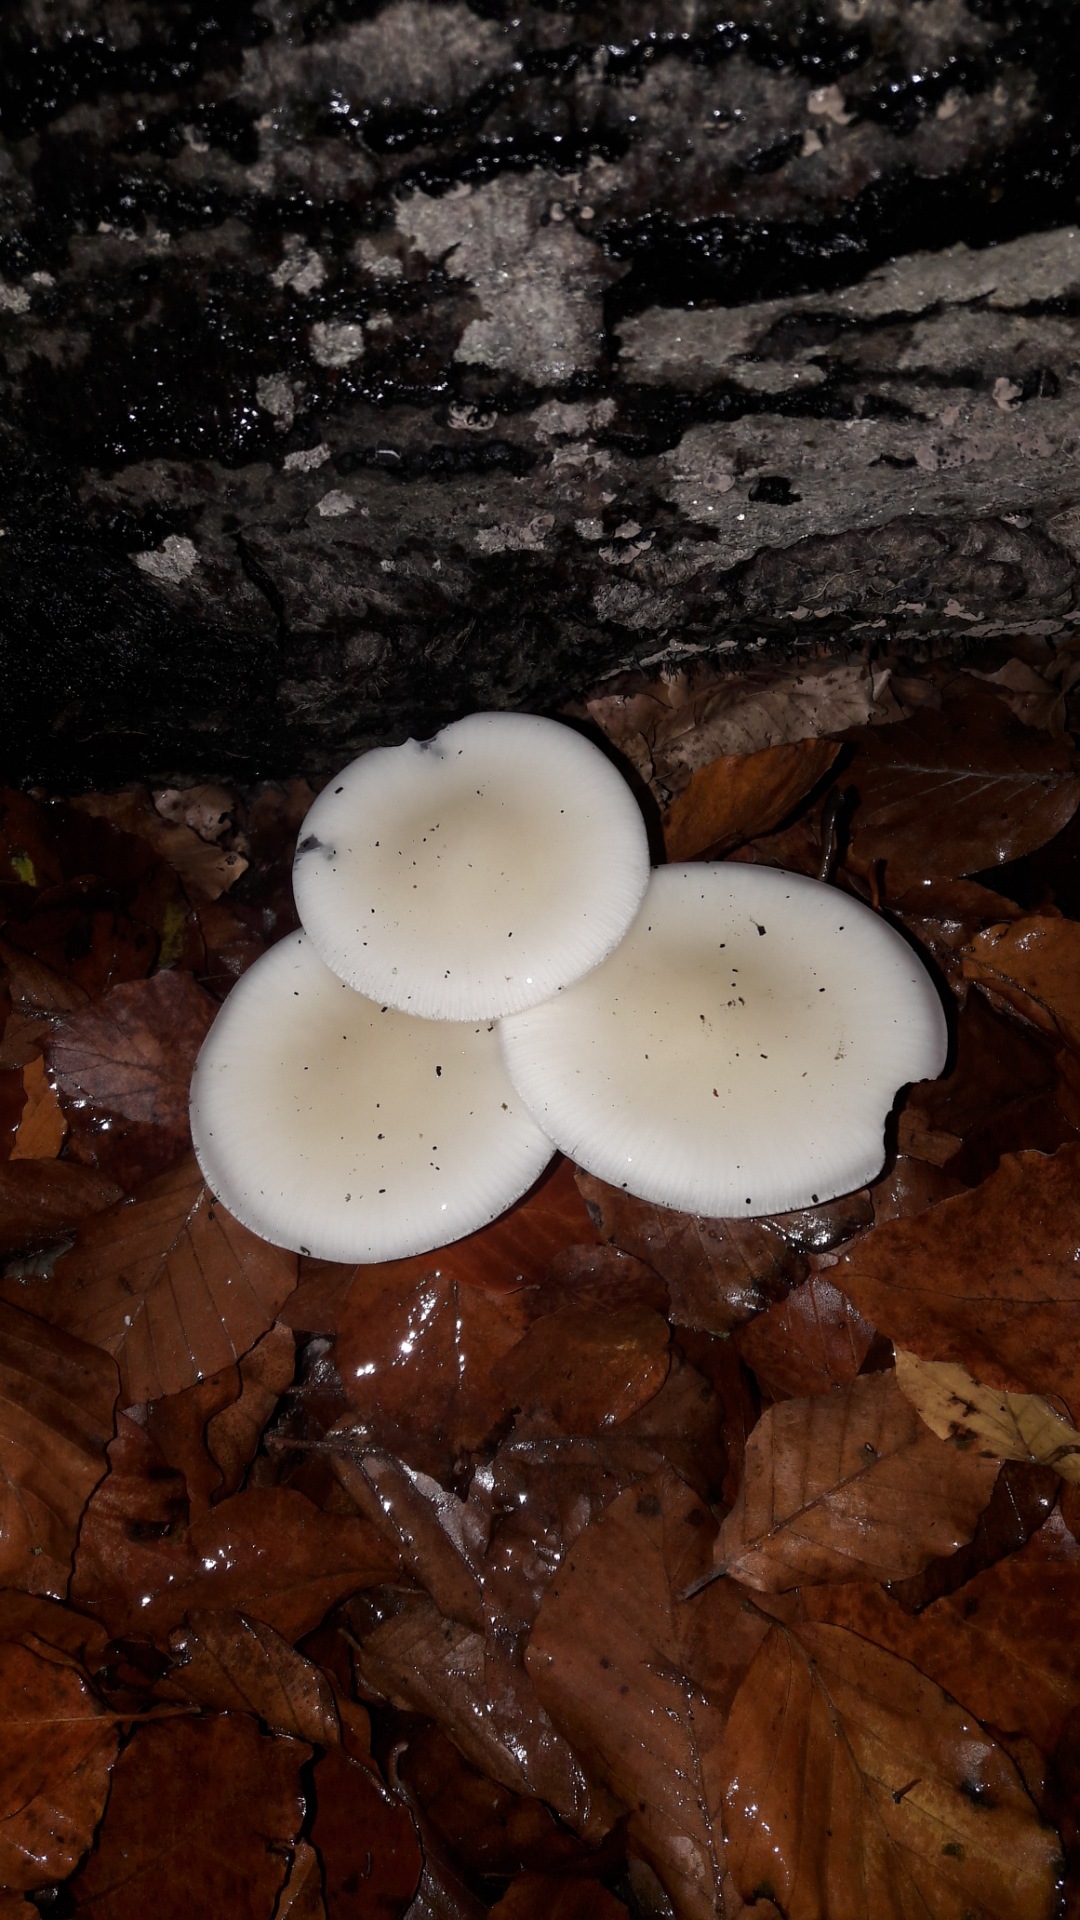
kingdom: Fungi
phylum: Basidiomycota
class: Agaricomycetes
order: Agaricales
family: Physalacriaceae
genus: Mucidula
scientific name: Mucidula mucida
